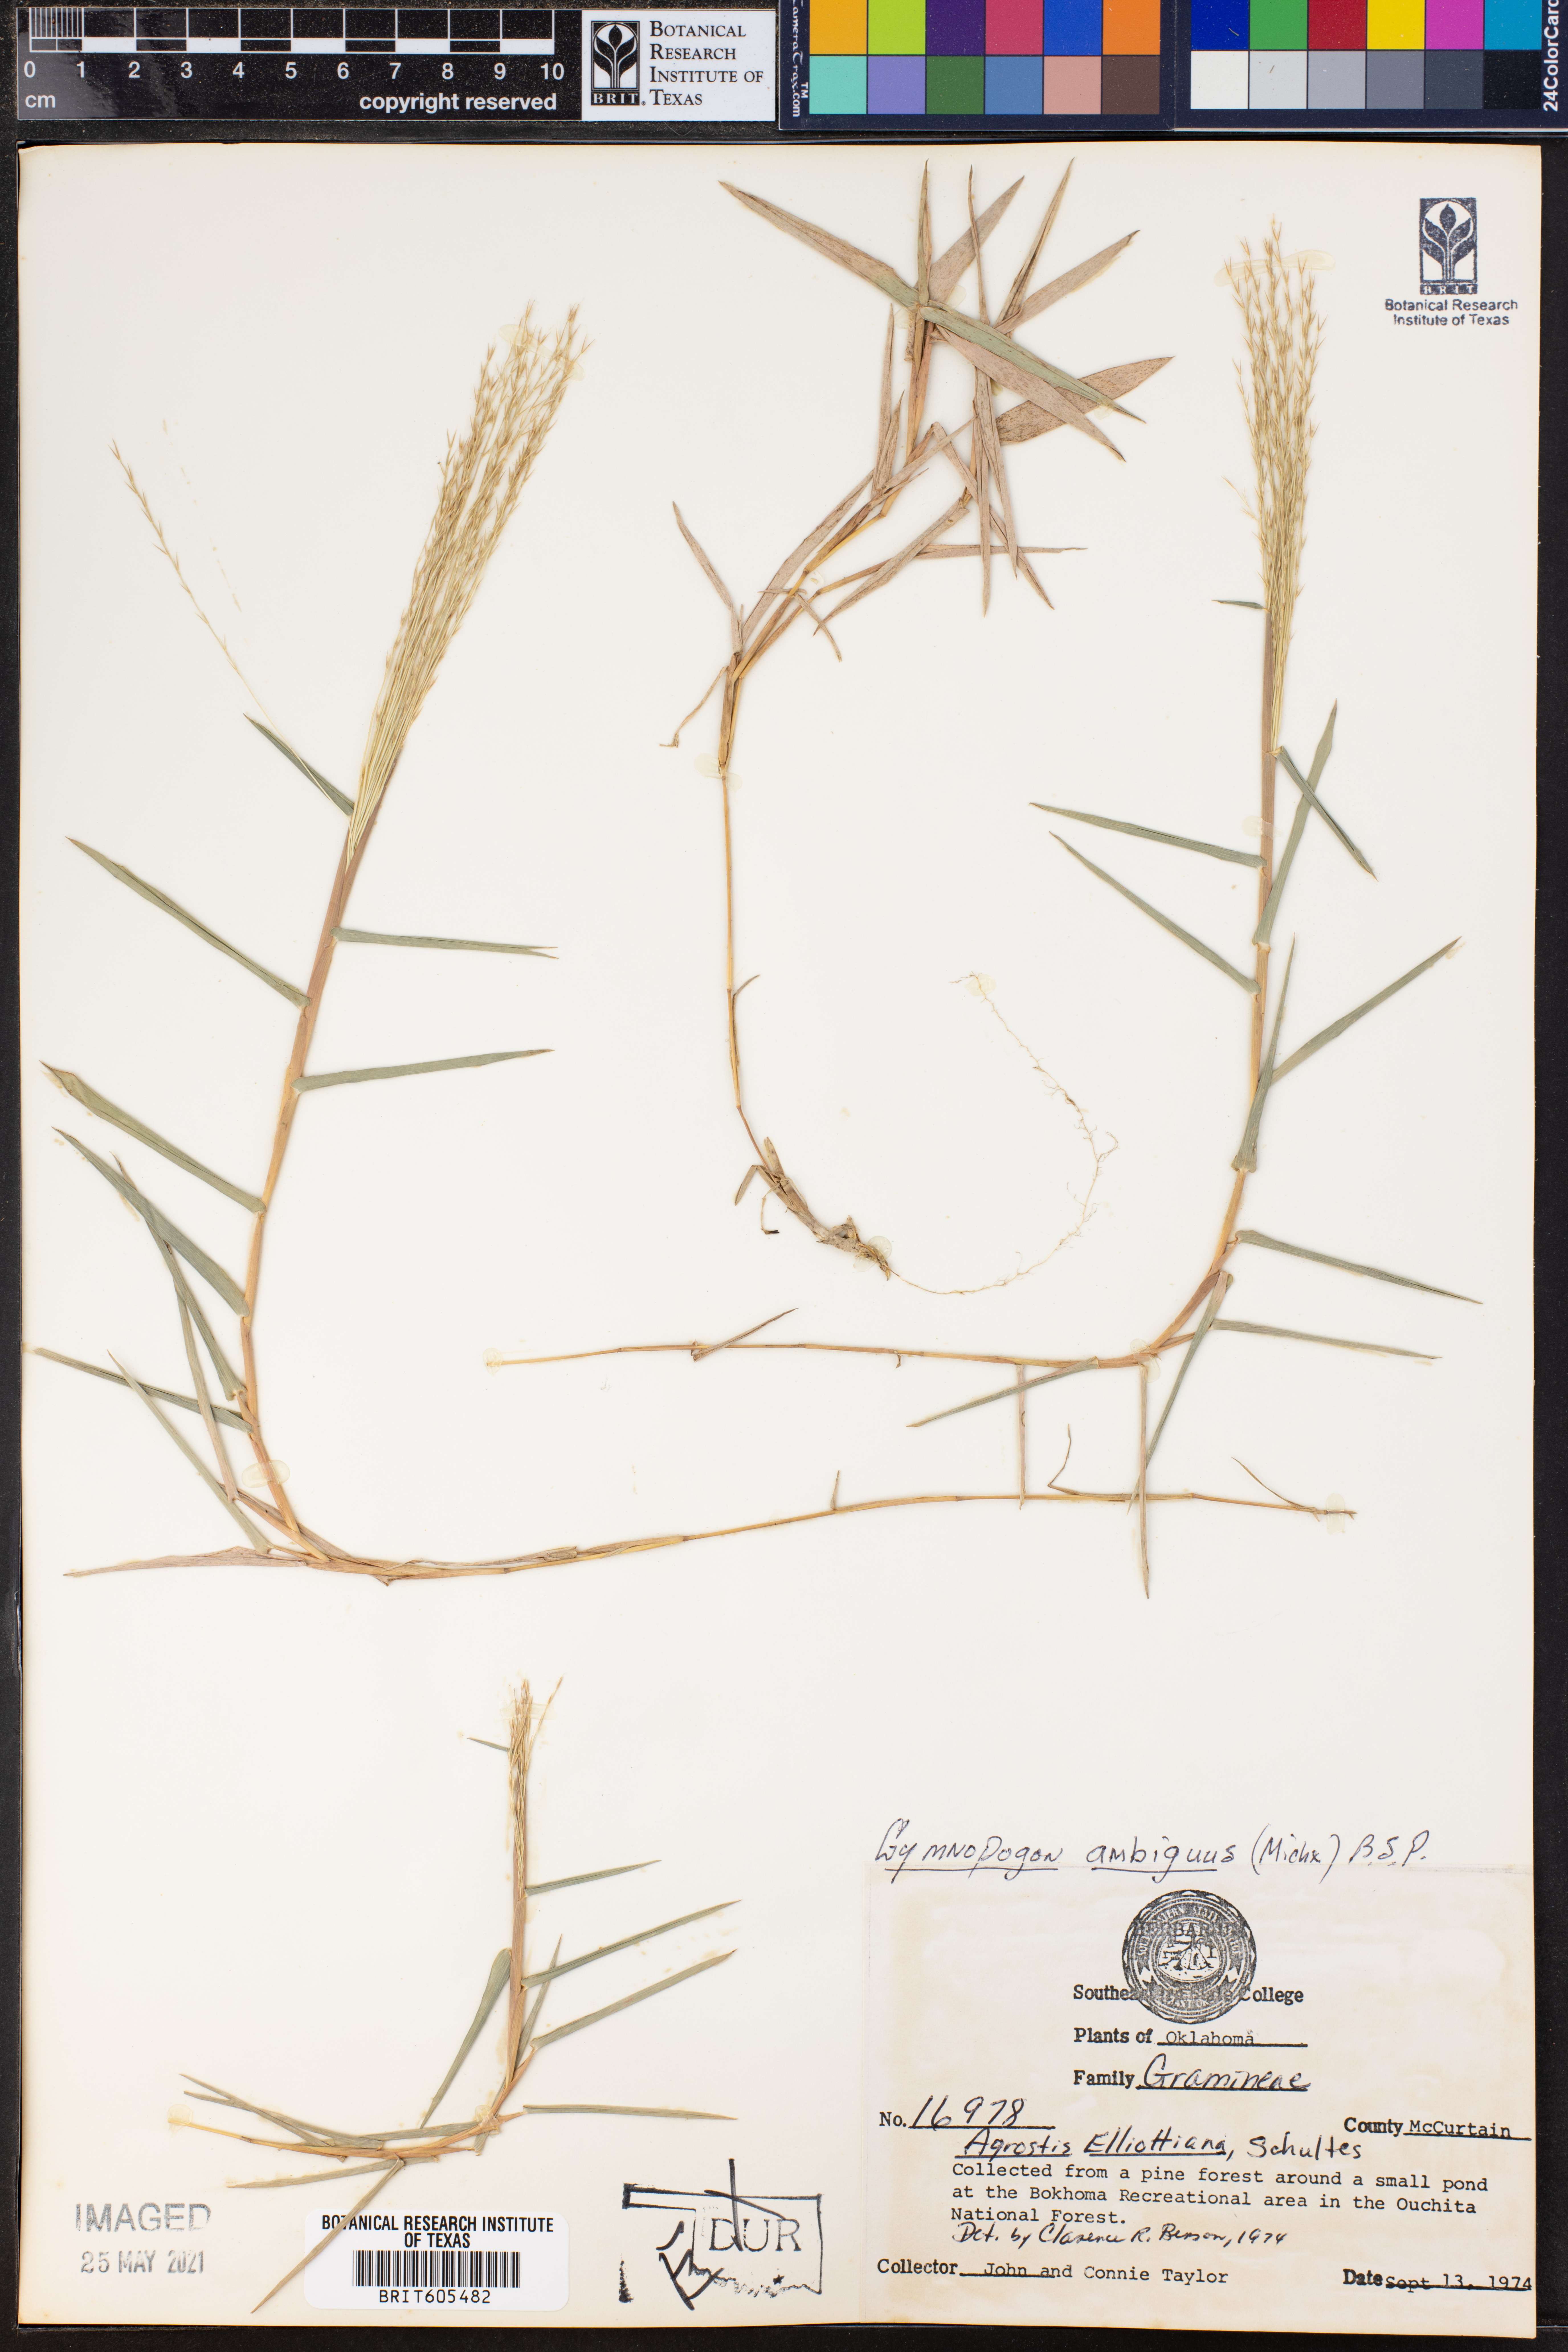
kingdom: Plantae
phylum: Tracheophyta
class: Liliopsida
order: Poales
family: Poaceae
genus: Gymnopogon
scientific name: Gymnopogon ambiguus
